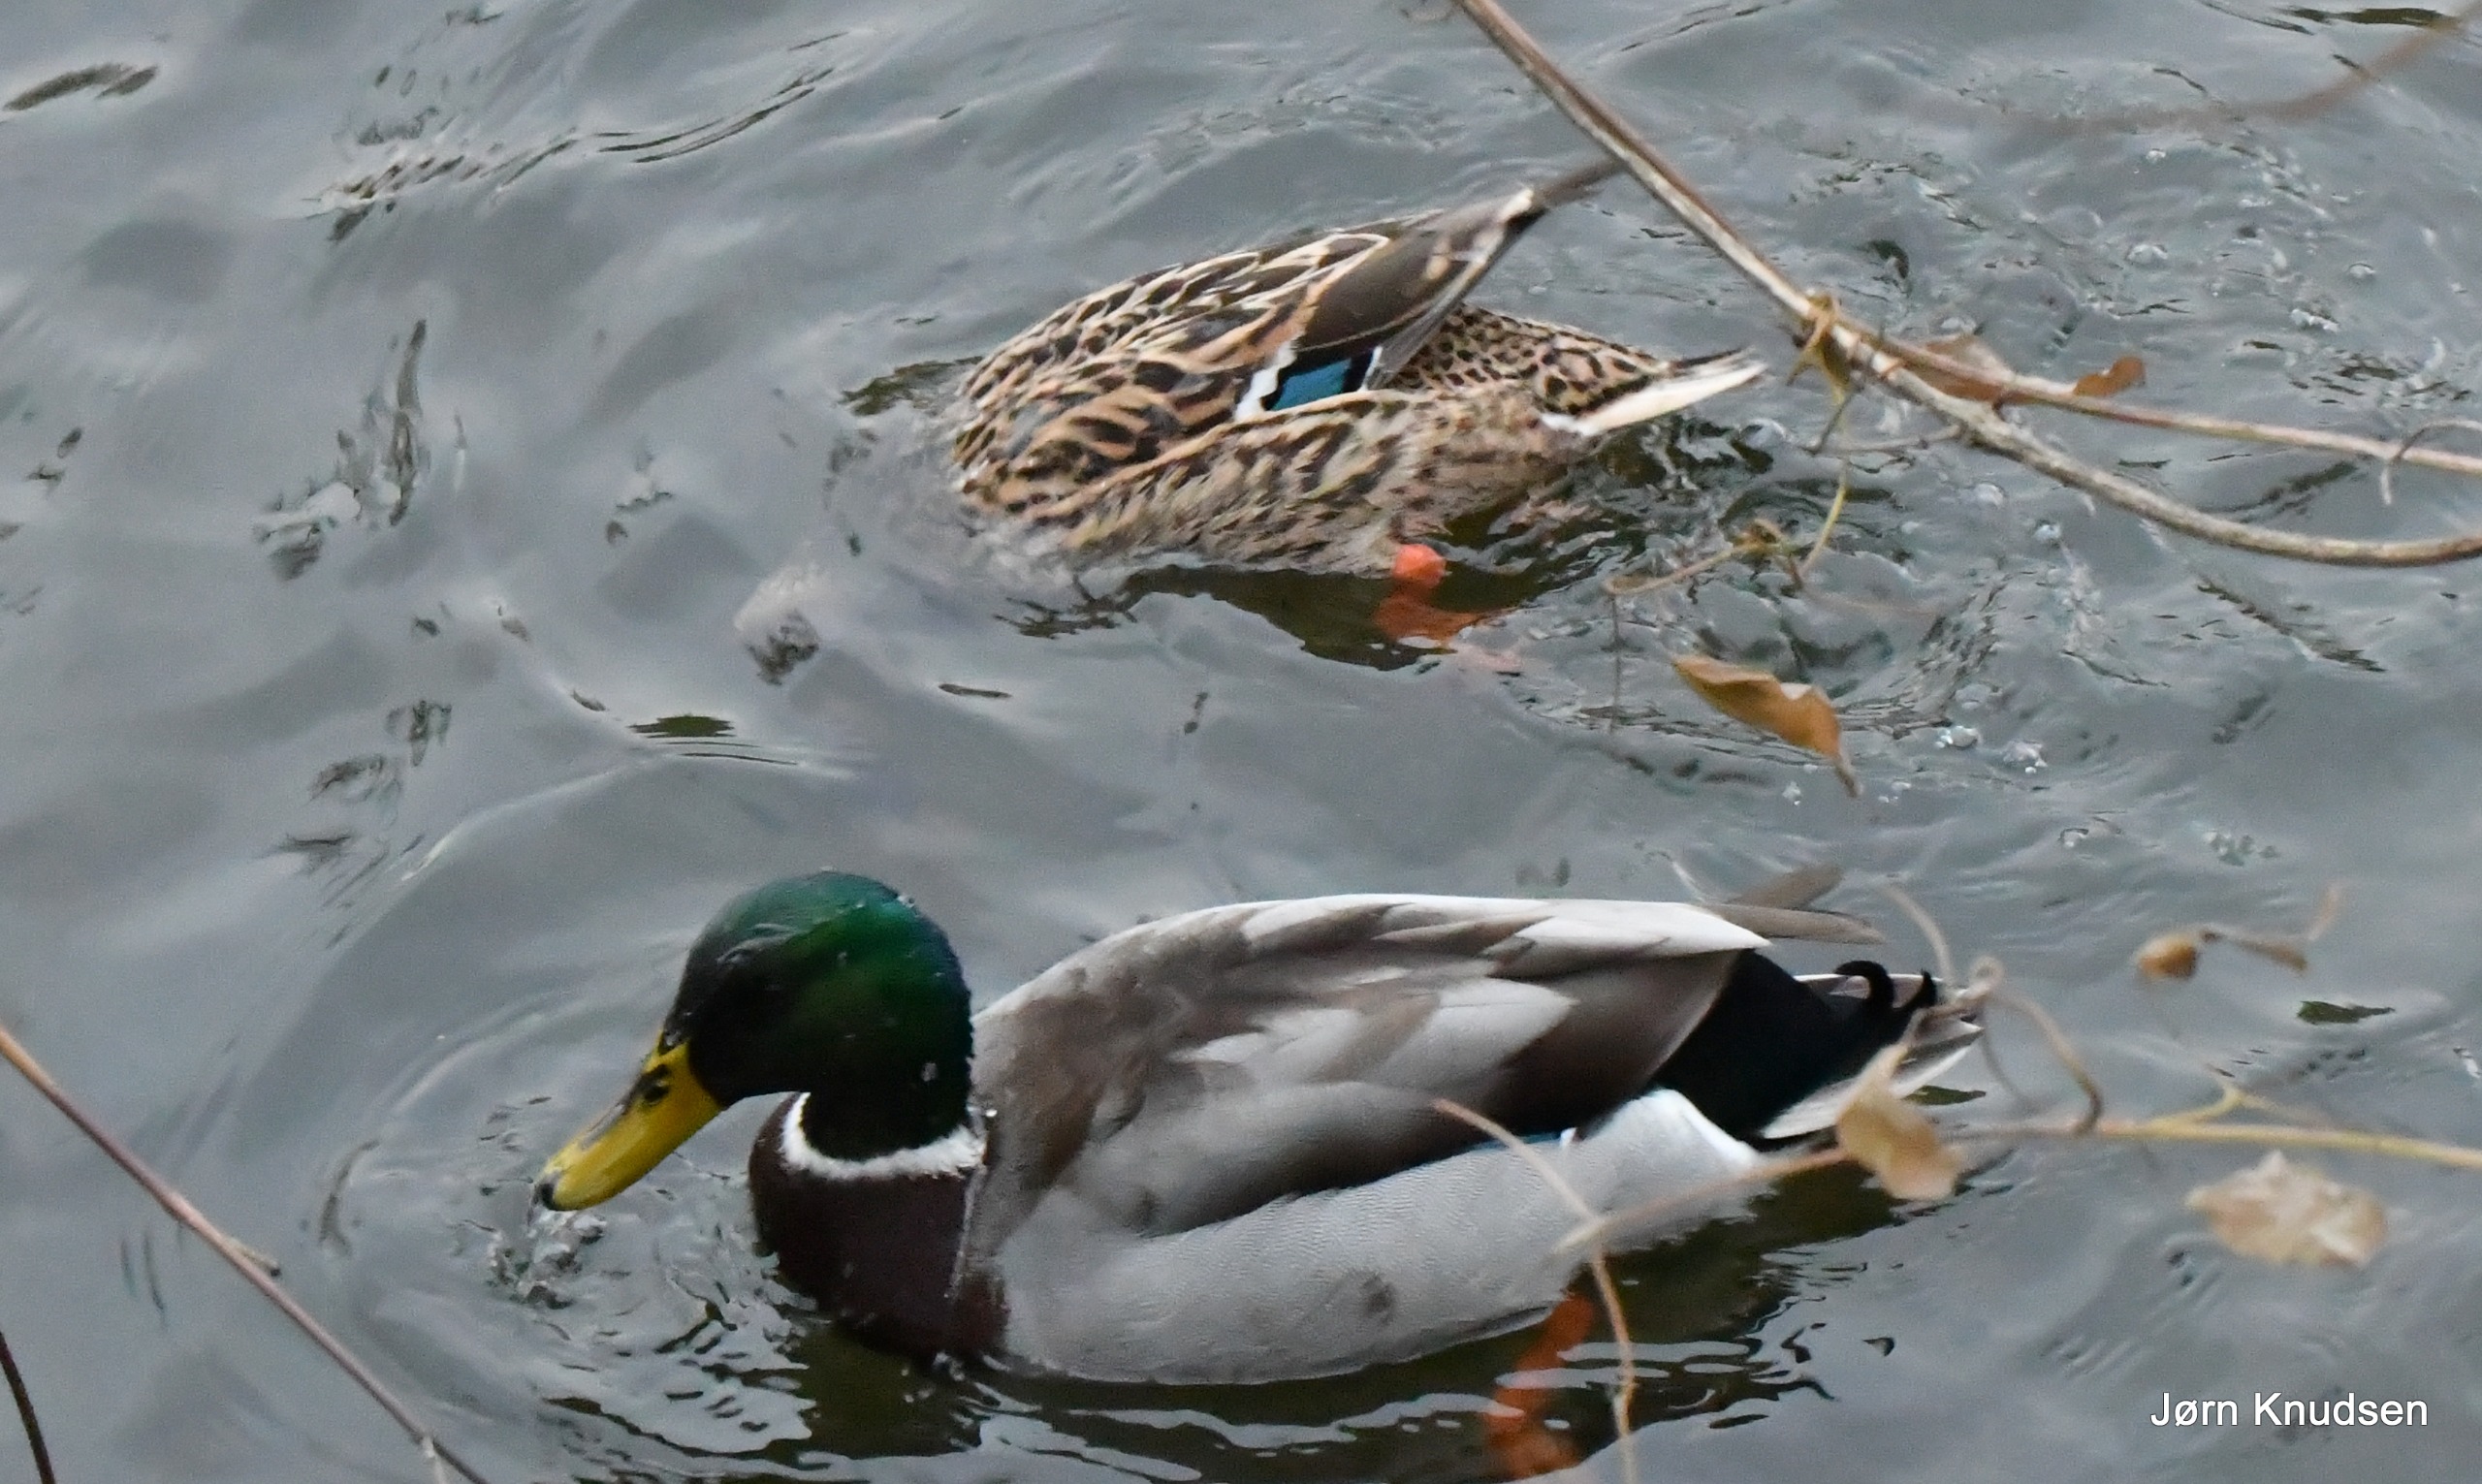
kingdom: Animalia
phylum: Chordata
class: Aves
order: Anseriformes
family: Anatidae
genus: Anas
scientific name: Anas platyrhynchos
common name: Gråand
